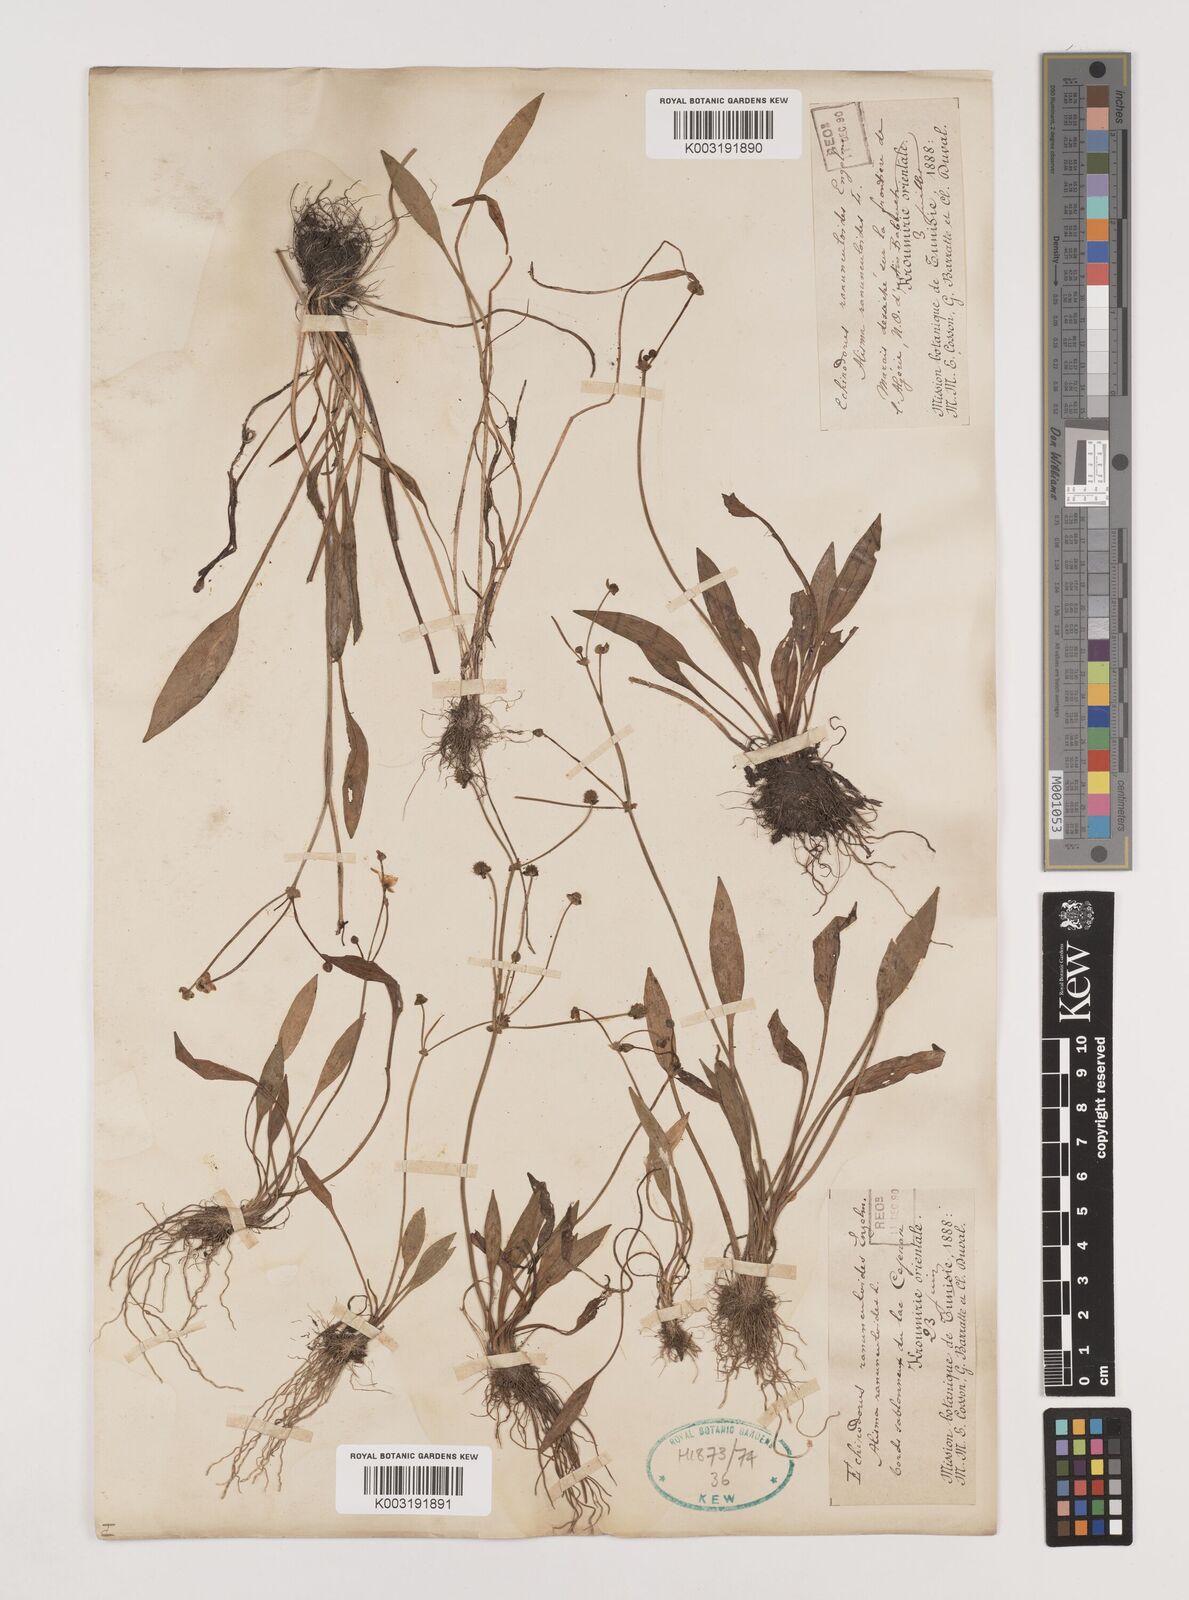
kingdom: Plantae
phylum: Tracheophyta
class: Liliopsida
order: Alismatales
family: Alismataceae
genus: Baldellia
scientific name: Baldellia ranunculoides
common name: Lesser water-plantain
